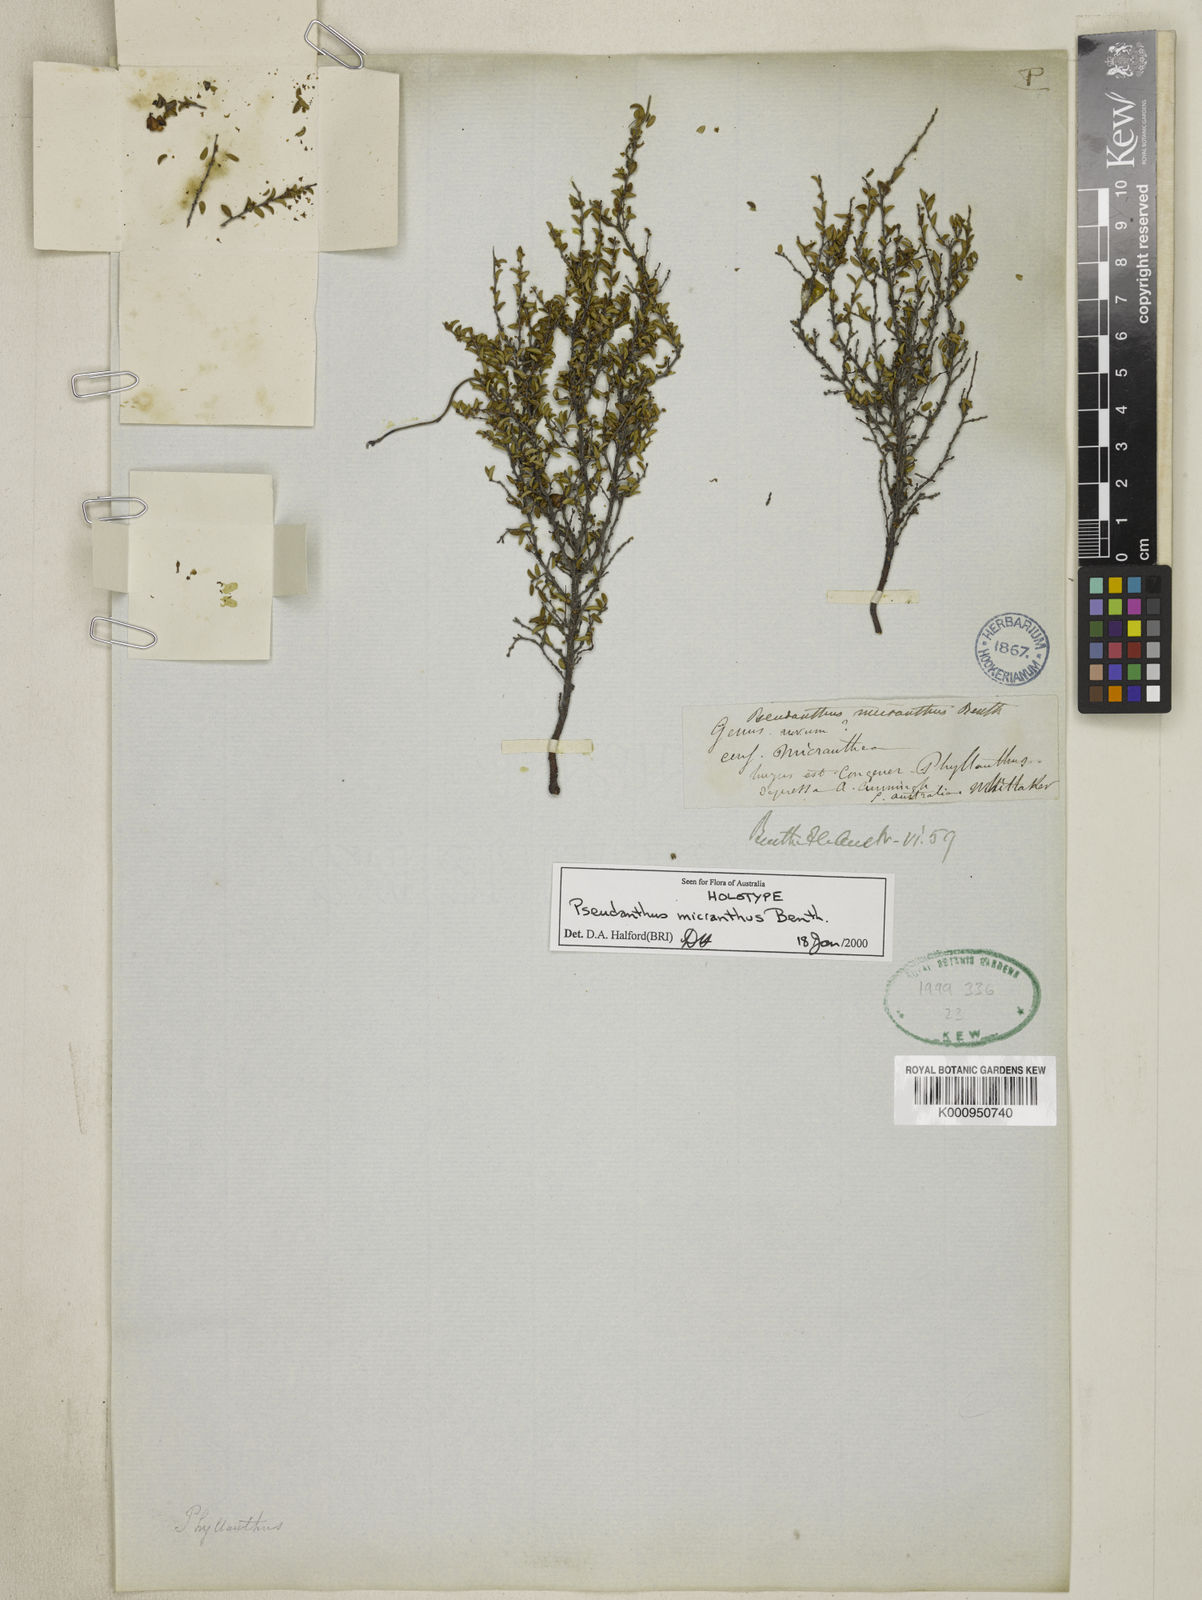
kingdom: Plantae
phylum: Tracheophyta
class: Magnoliopsida
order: Malpighiales
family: Picrodendraceae
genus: Pseudanthus
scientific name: Pseudanthus micranthus
